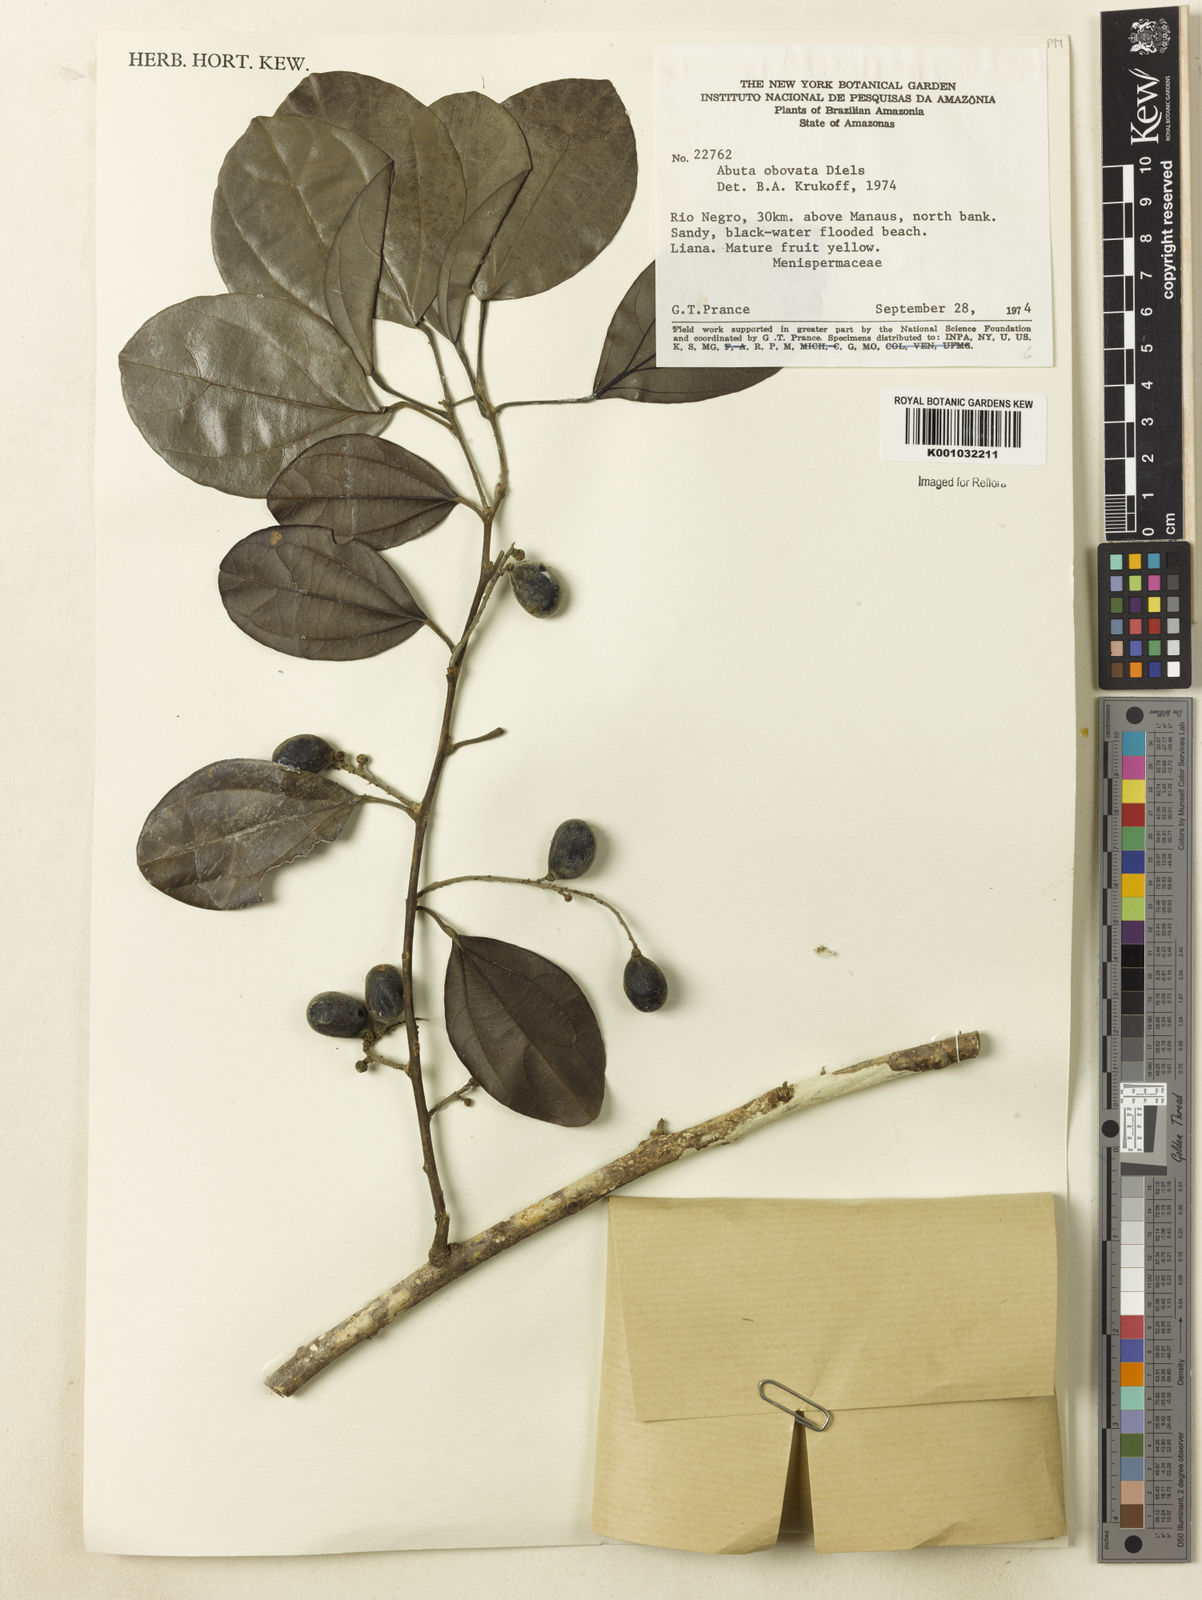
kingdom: Plantae
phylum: Tracheophyta
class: Magnoliopsida
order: Ranunculales
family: Menispermaceae
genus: Abuta
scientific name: Abuta obovata
